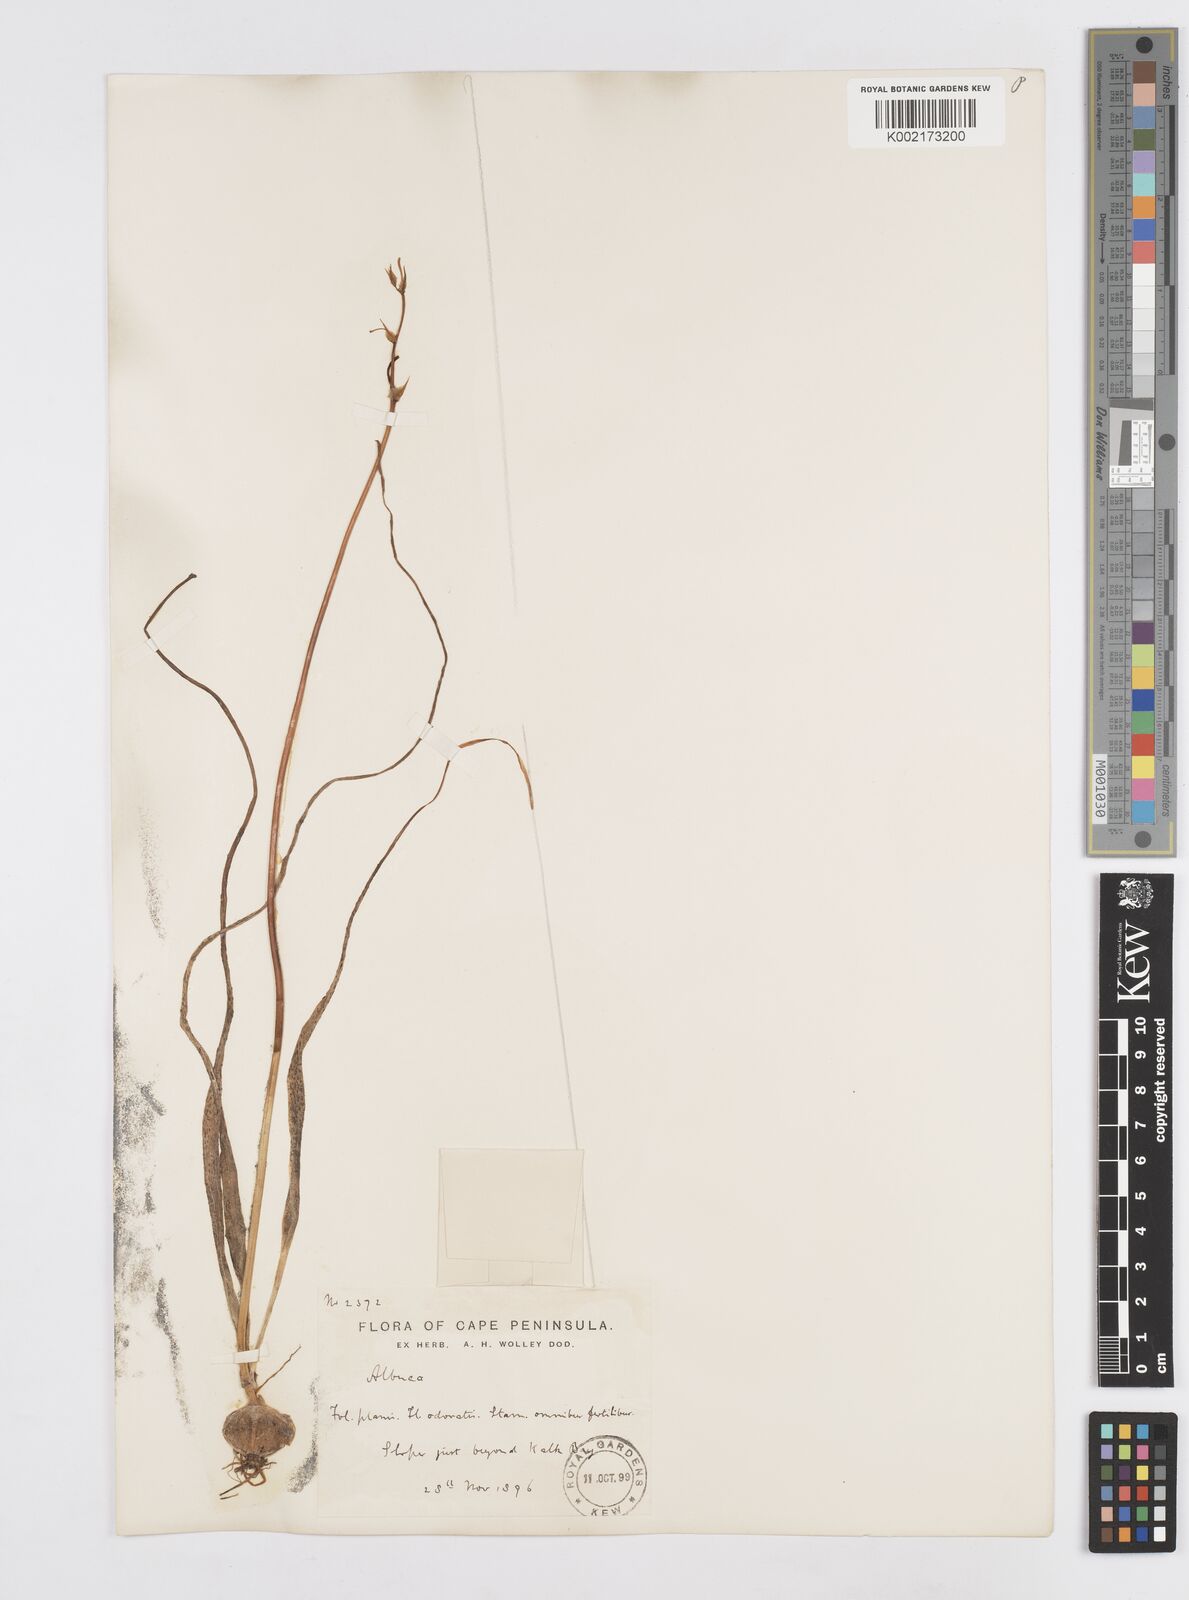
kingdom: Plantae
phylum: Tracheophyta
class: Liliopsida
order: Asparagales
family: Asparagaceae
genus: Albuca
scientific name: Albuca
